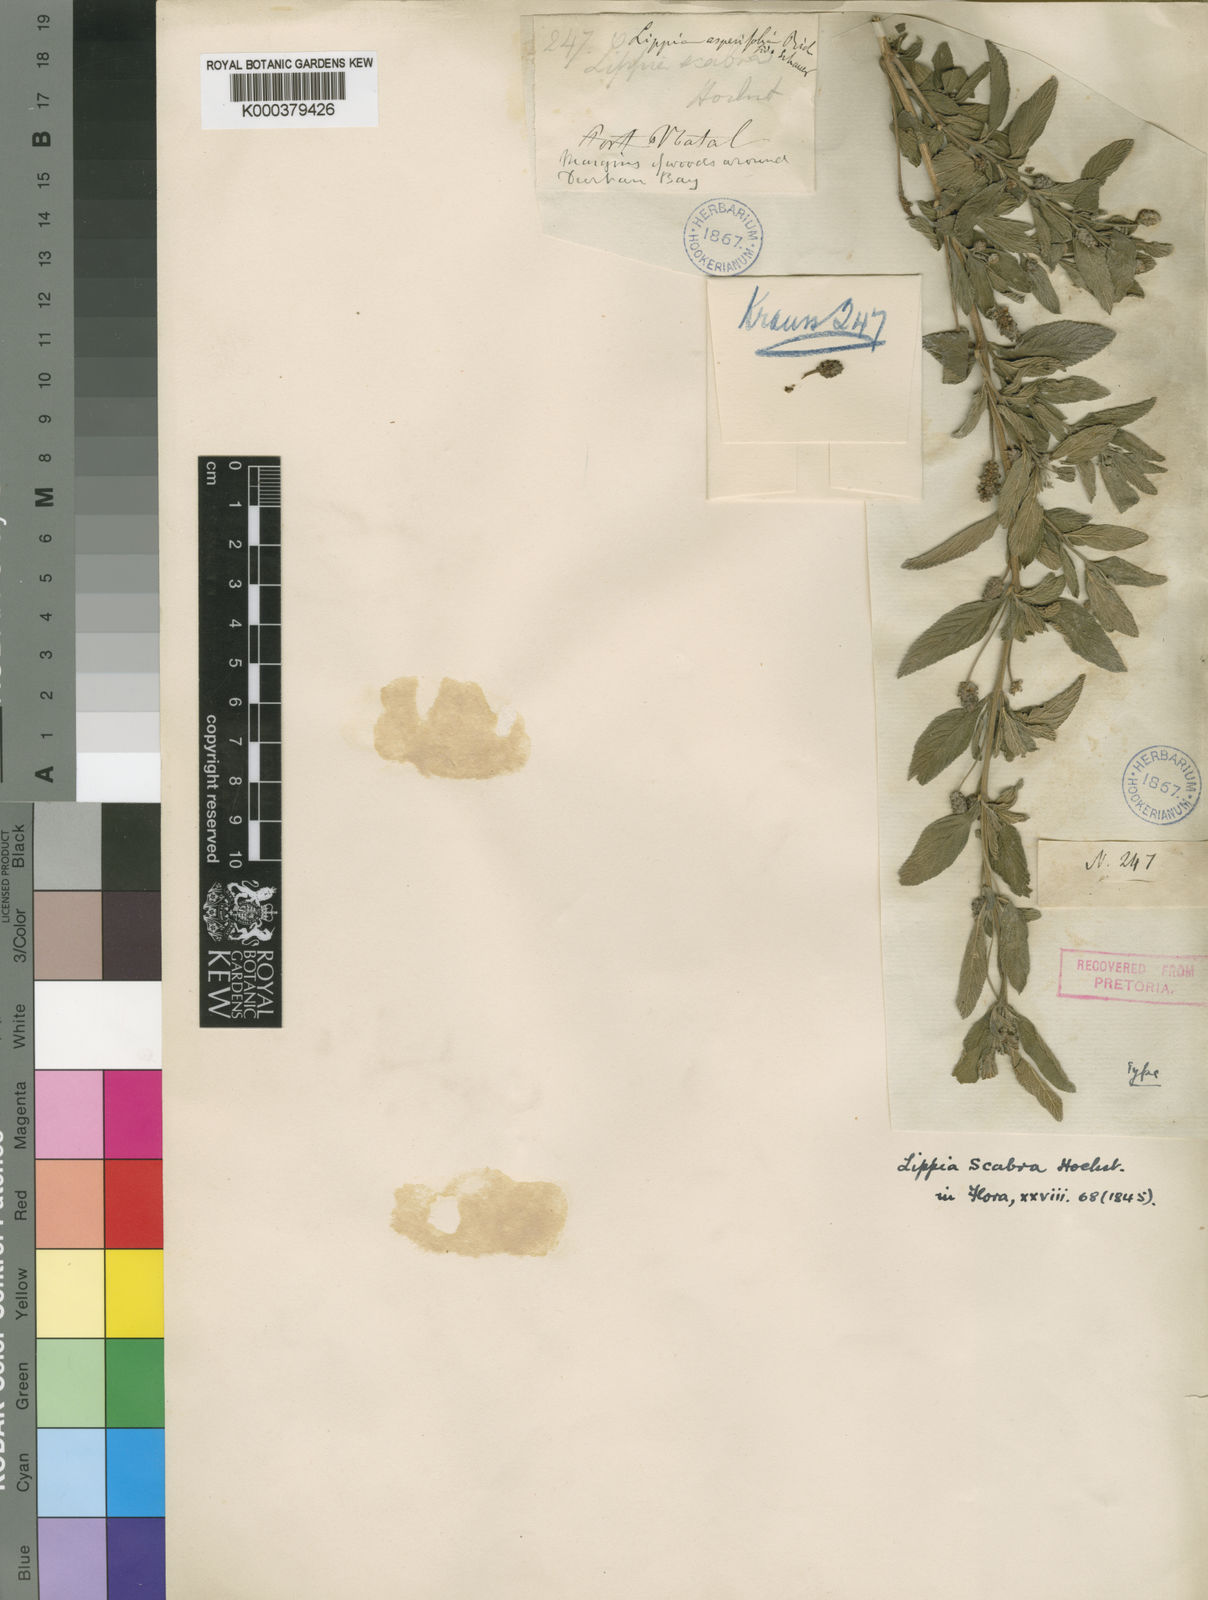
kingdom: Plantae
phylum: Tracheophyta
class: Magnoliopsida
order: Lamiales
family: Verbenaceae
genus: Lippia
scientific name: Lippia javanica
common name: Lemonbush
